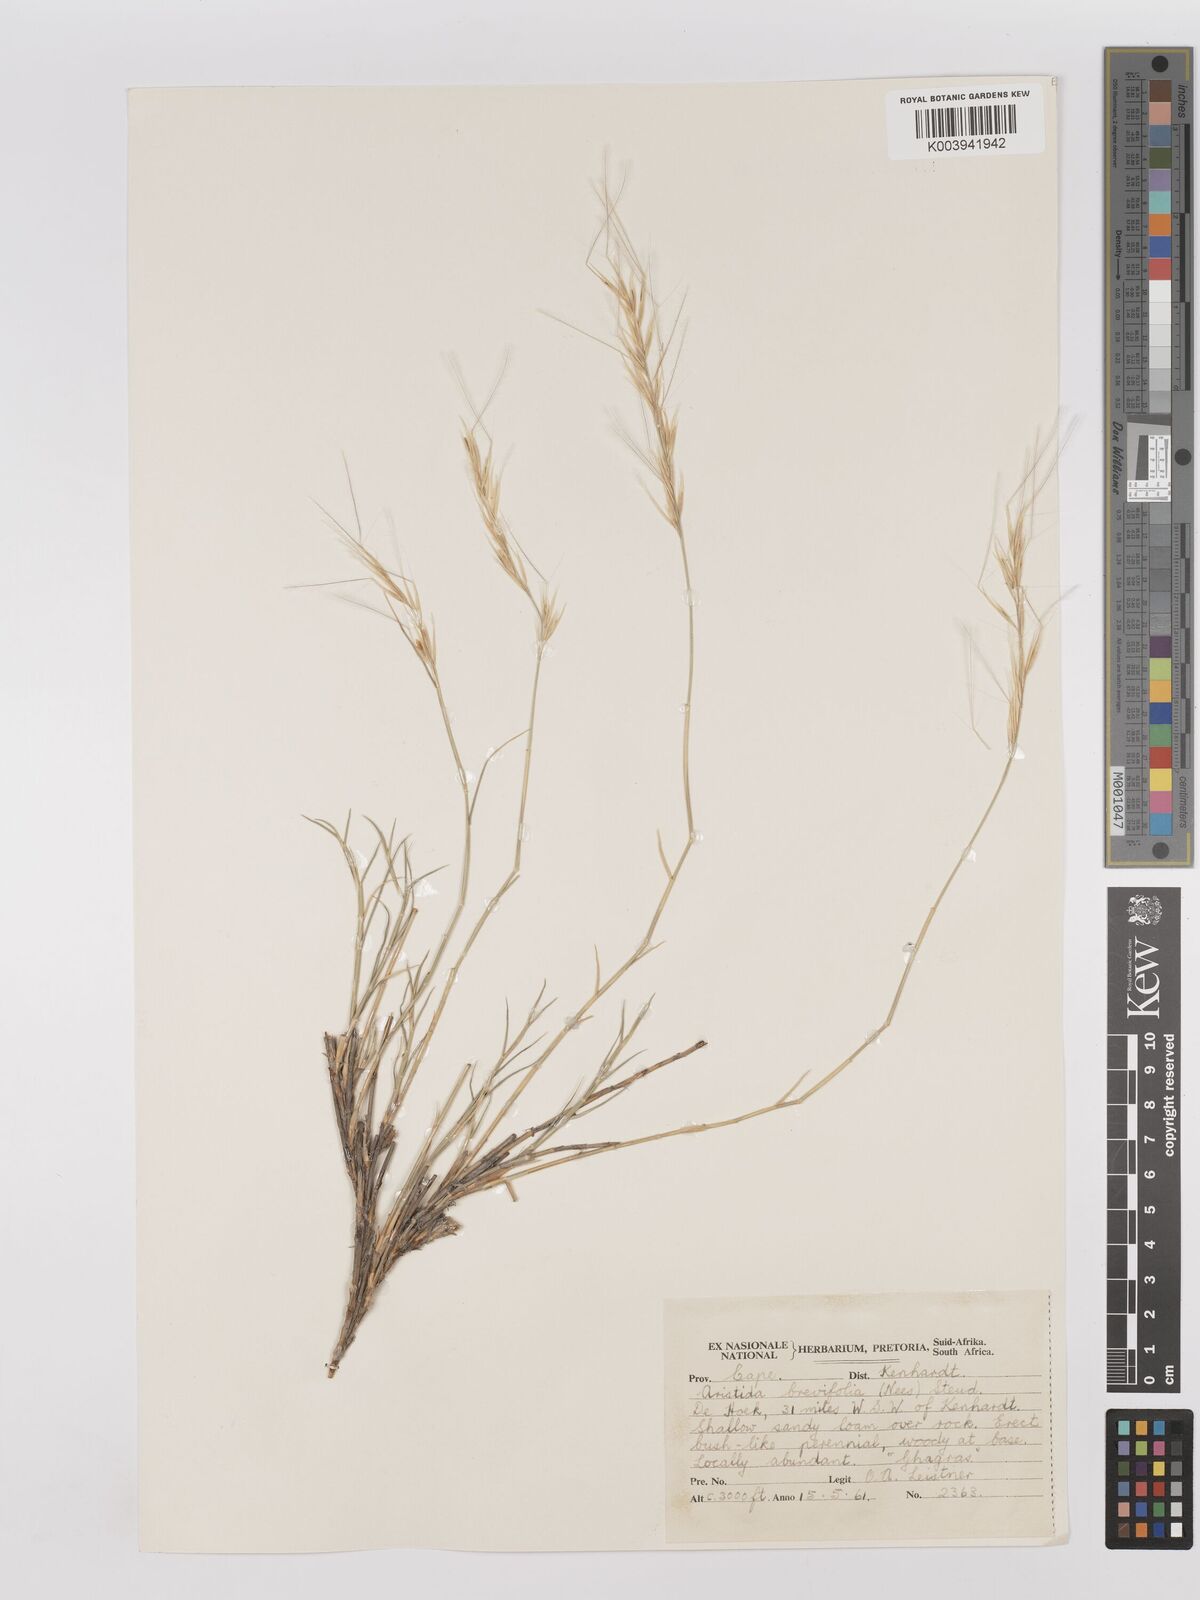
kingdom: Plantae
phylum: Tracheophyta
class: Liliopsida
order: Poales
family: Poaceae
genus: Stipagrostis
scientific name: Stipagrostis brevifolia
